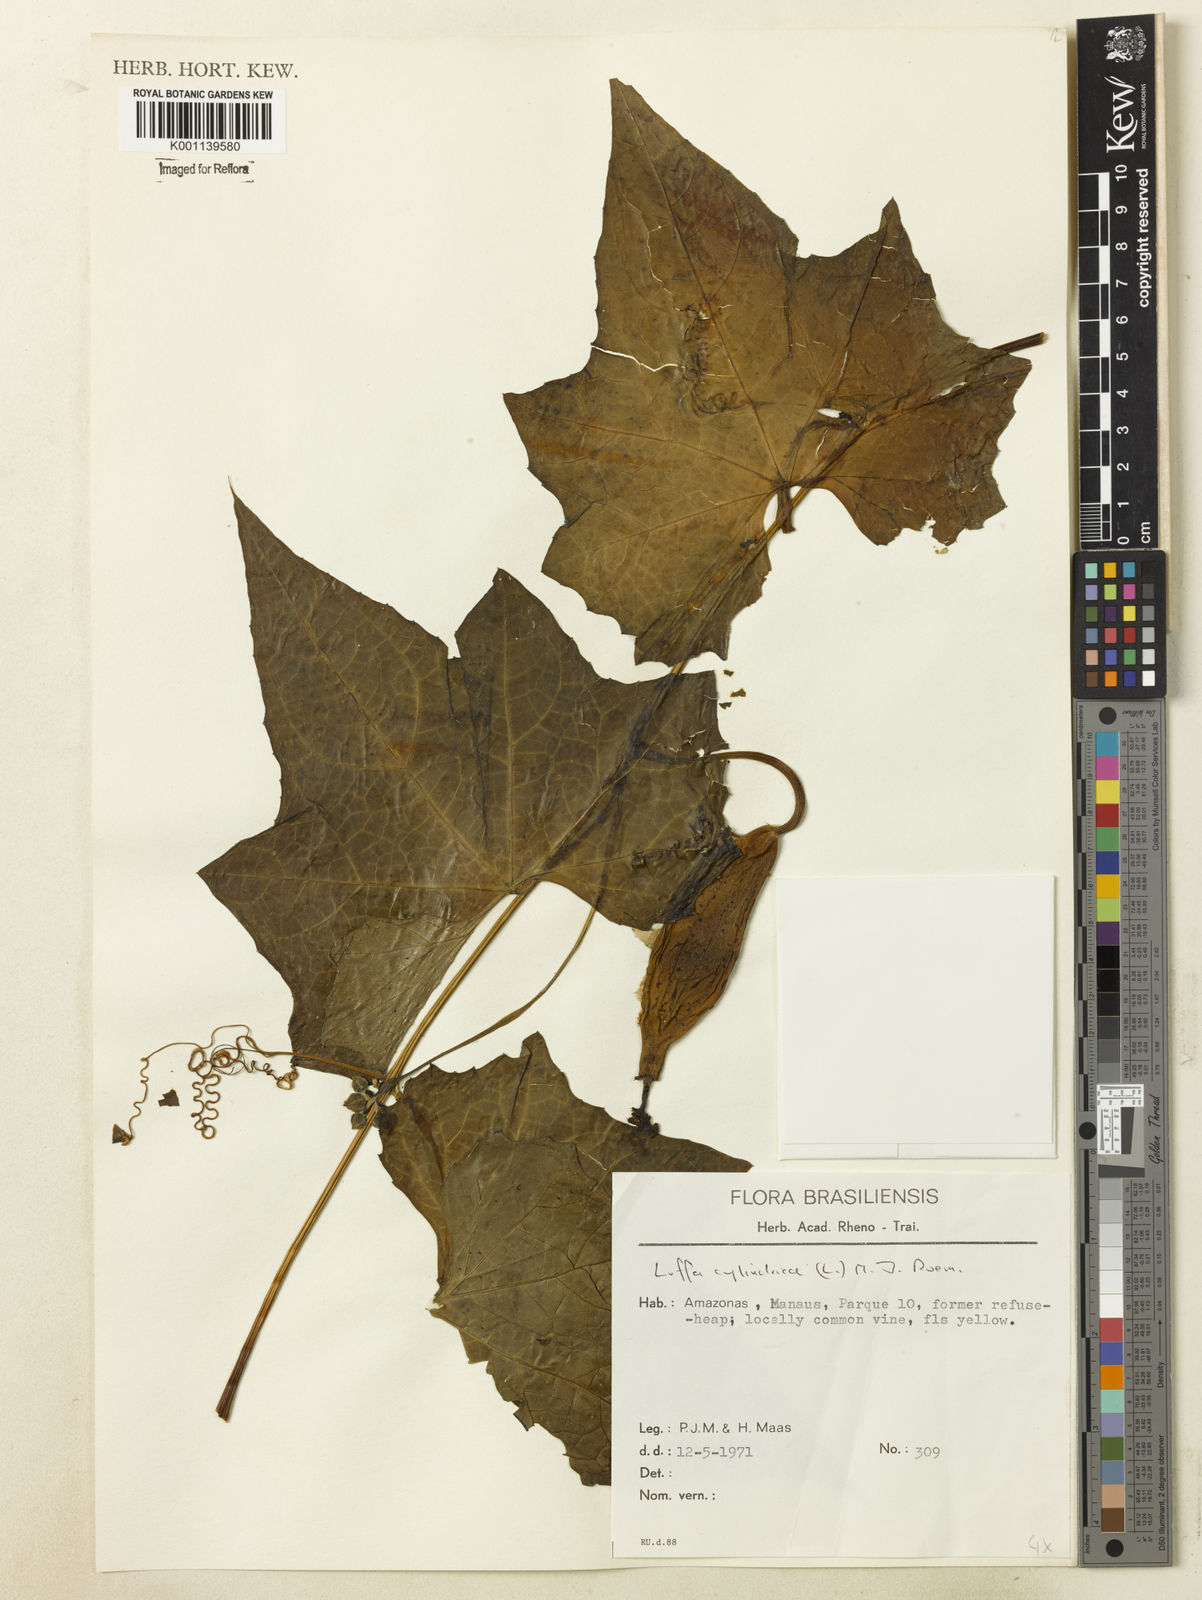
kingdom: Plantae
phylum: Tracheophyta
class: Magnoliopsida
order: Cucurbitales
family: Cucurbitaceae
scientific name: Cucurbitaceae
